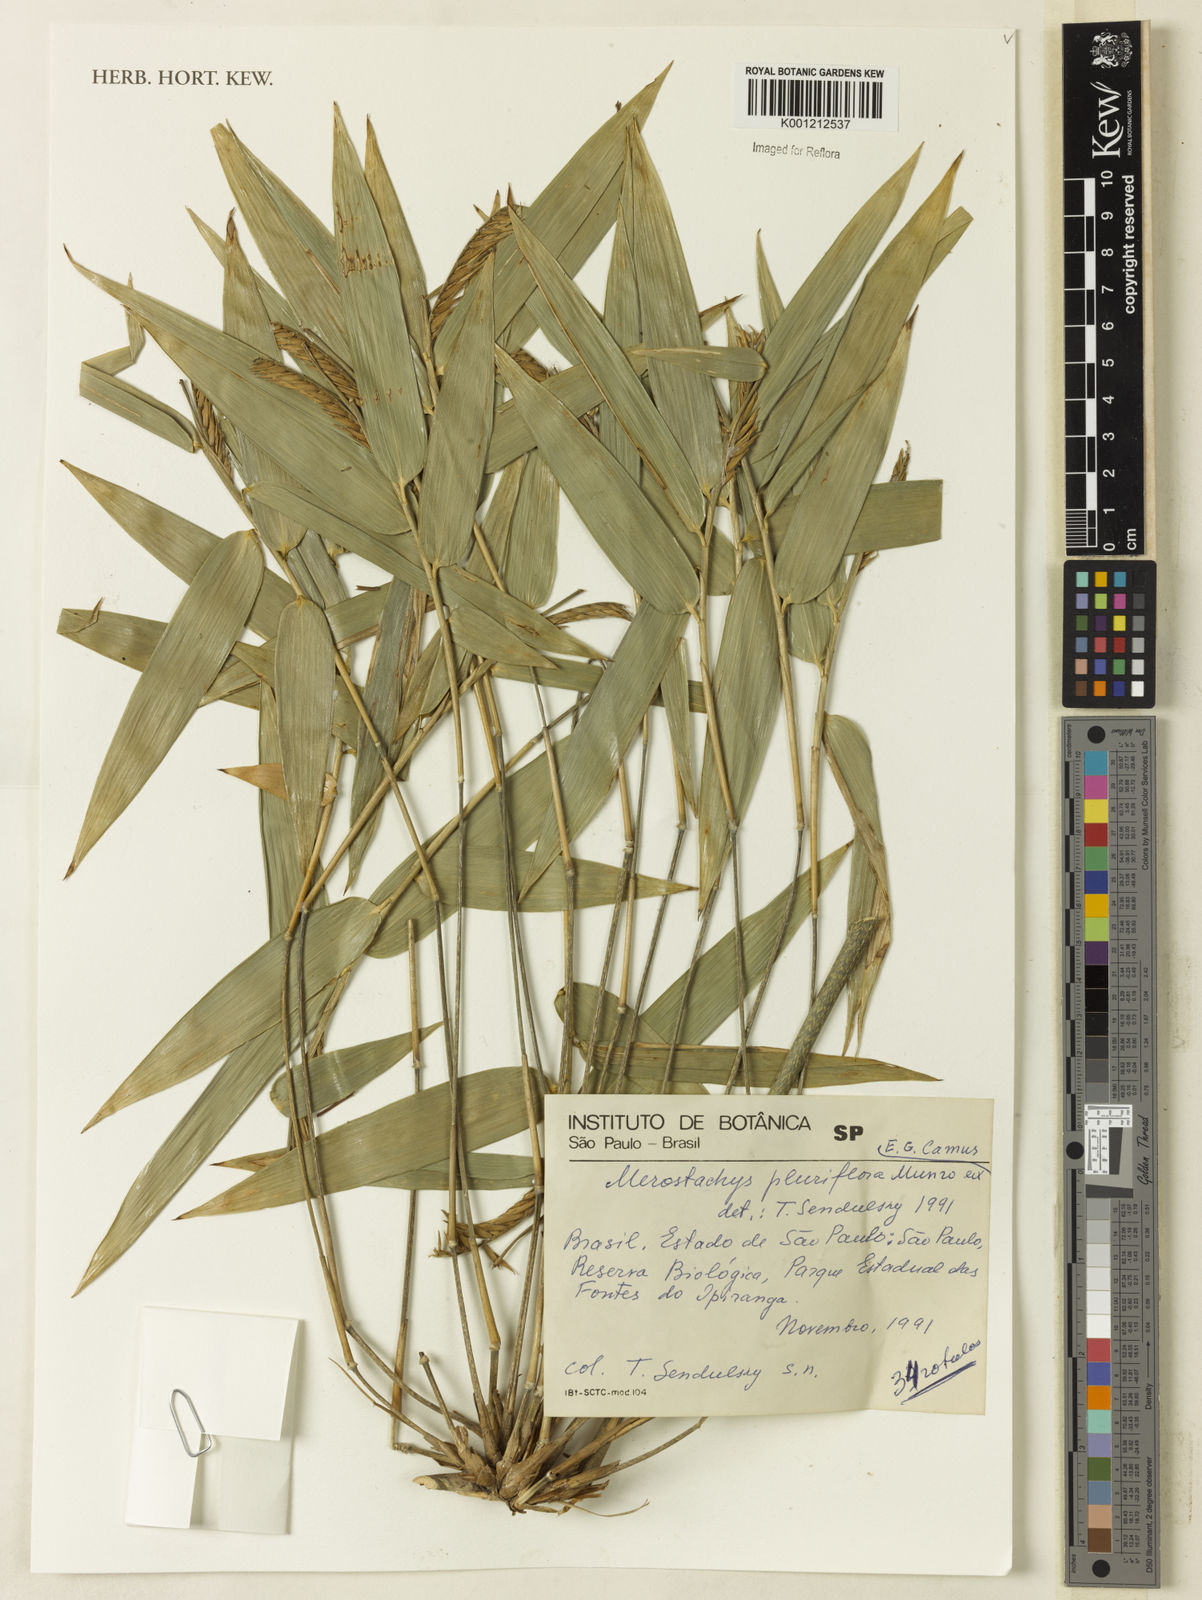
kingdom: Plantae
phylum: Tracheophyta
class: Liliopsida
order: Poales
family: Poaceae
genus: Merostachys
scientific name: Merostachys pluriflora
